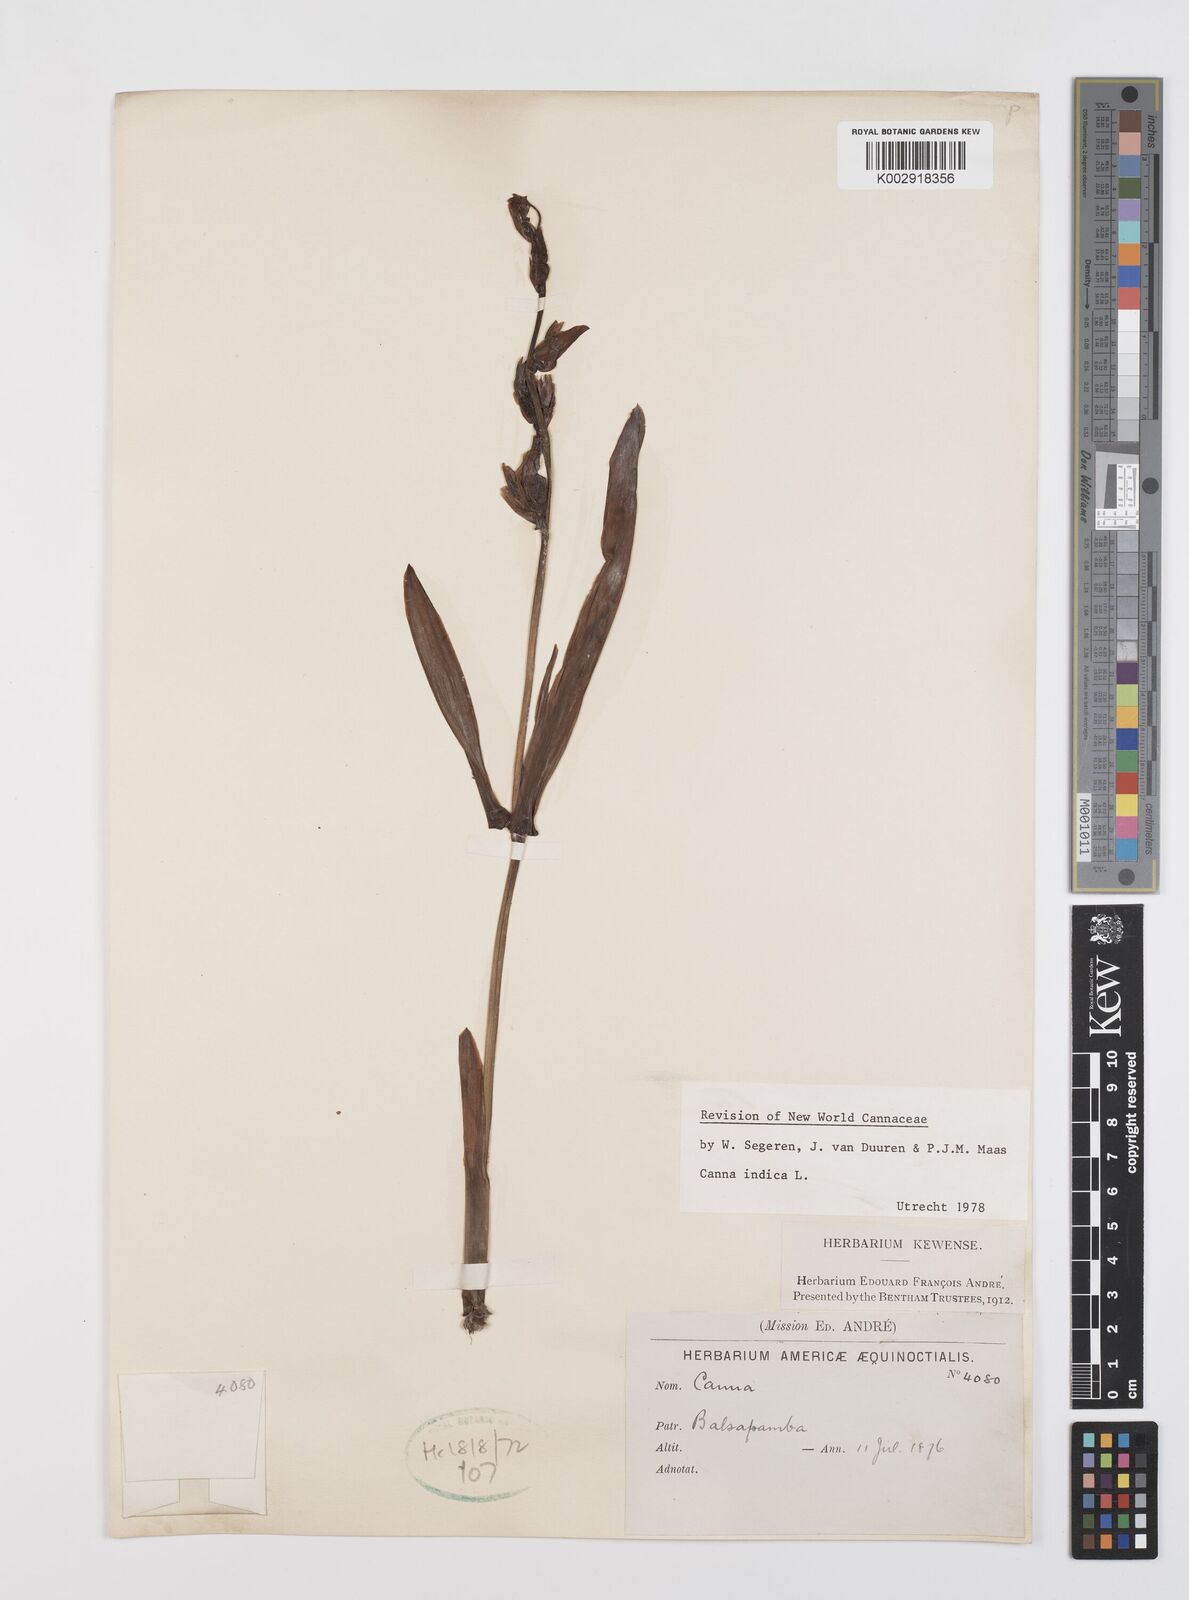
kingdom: Plantae
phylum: Tracheophyta
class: Liliopsida
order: Zingiberales
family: Cannaceae
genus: Canna
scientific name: Canna indica
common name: Indian shot
